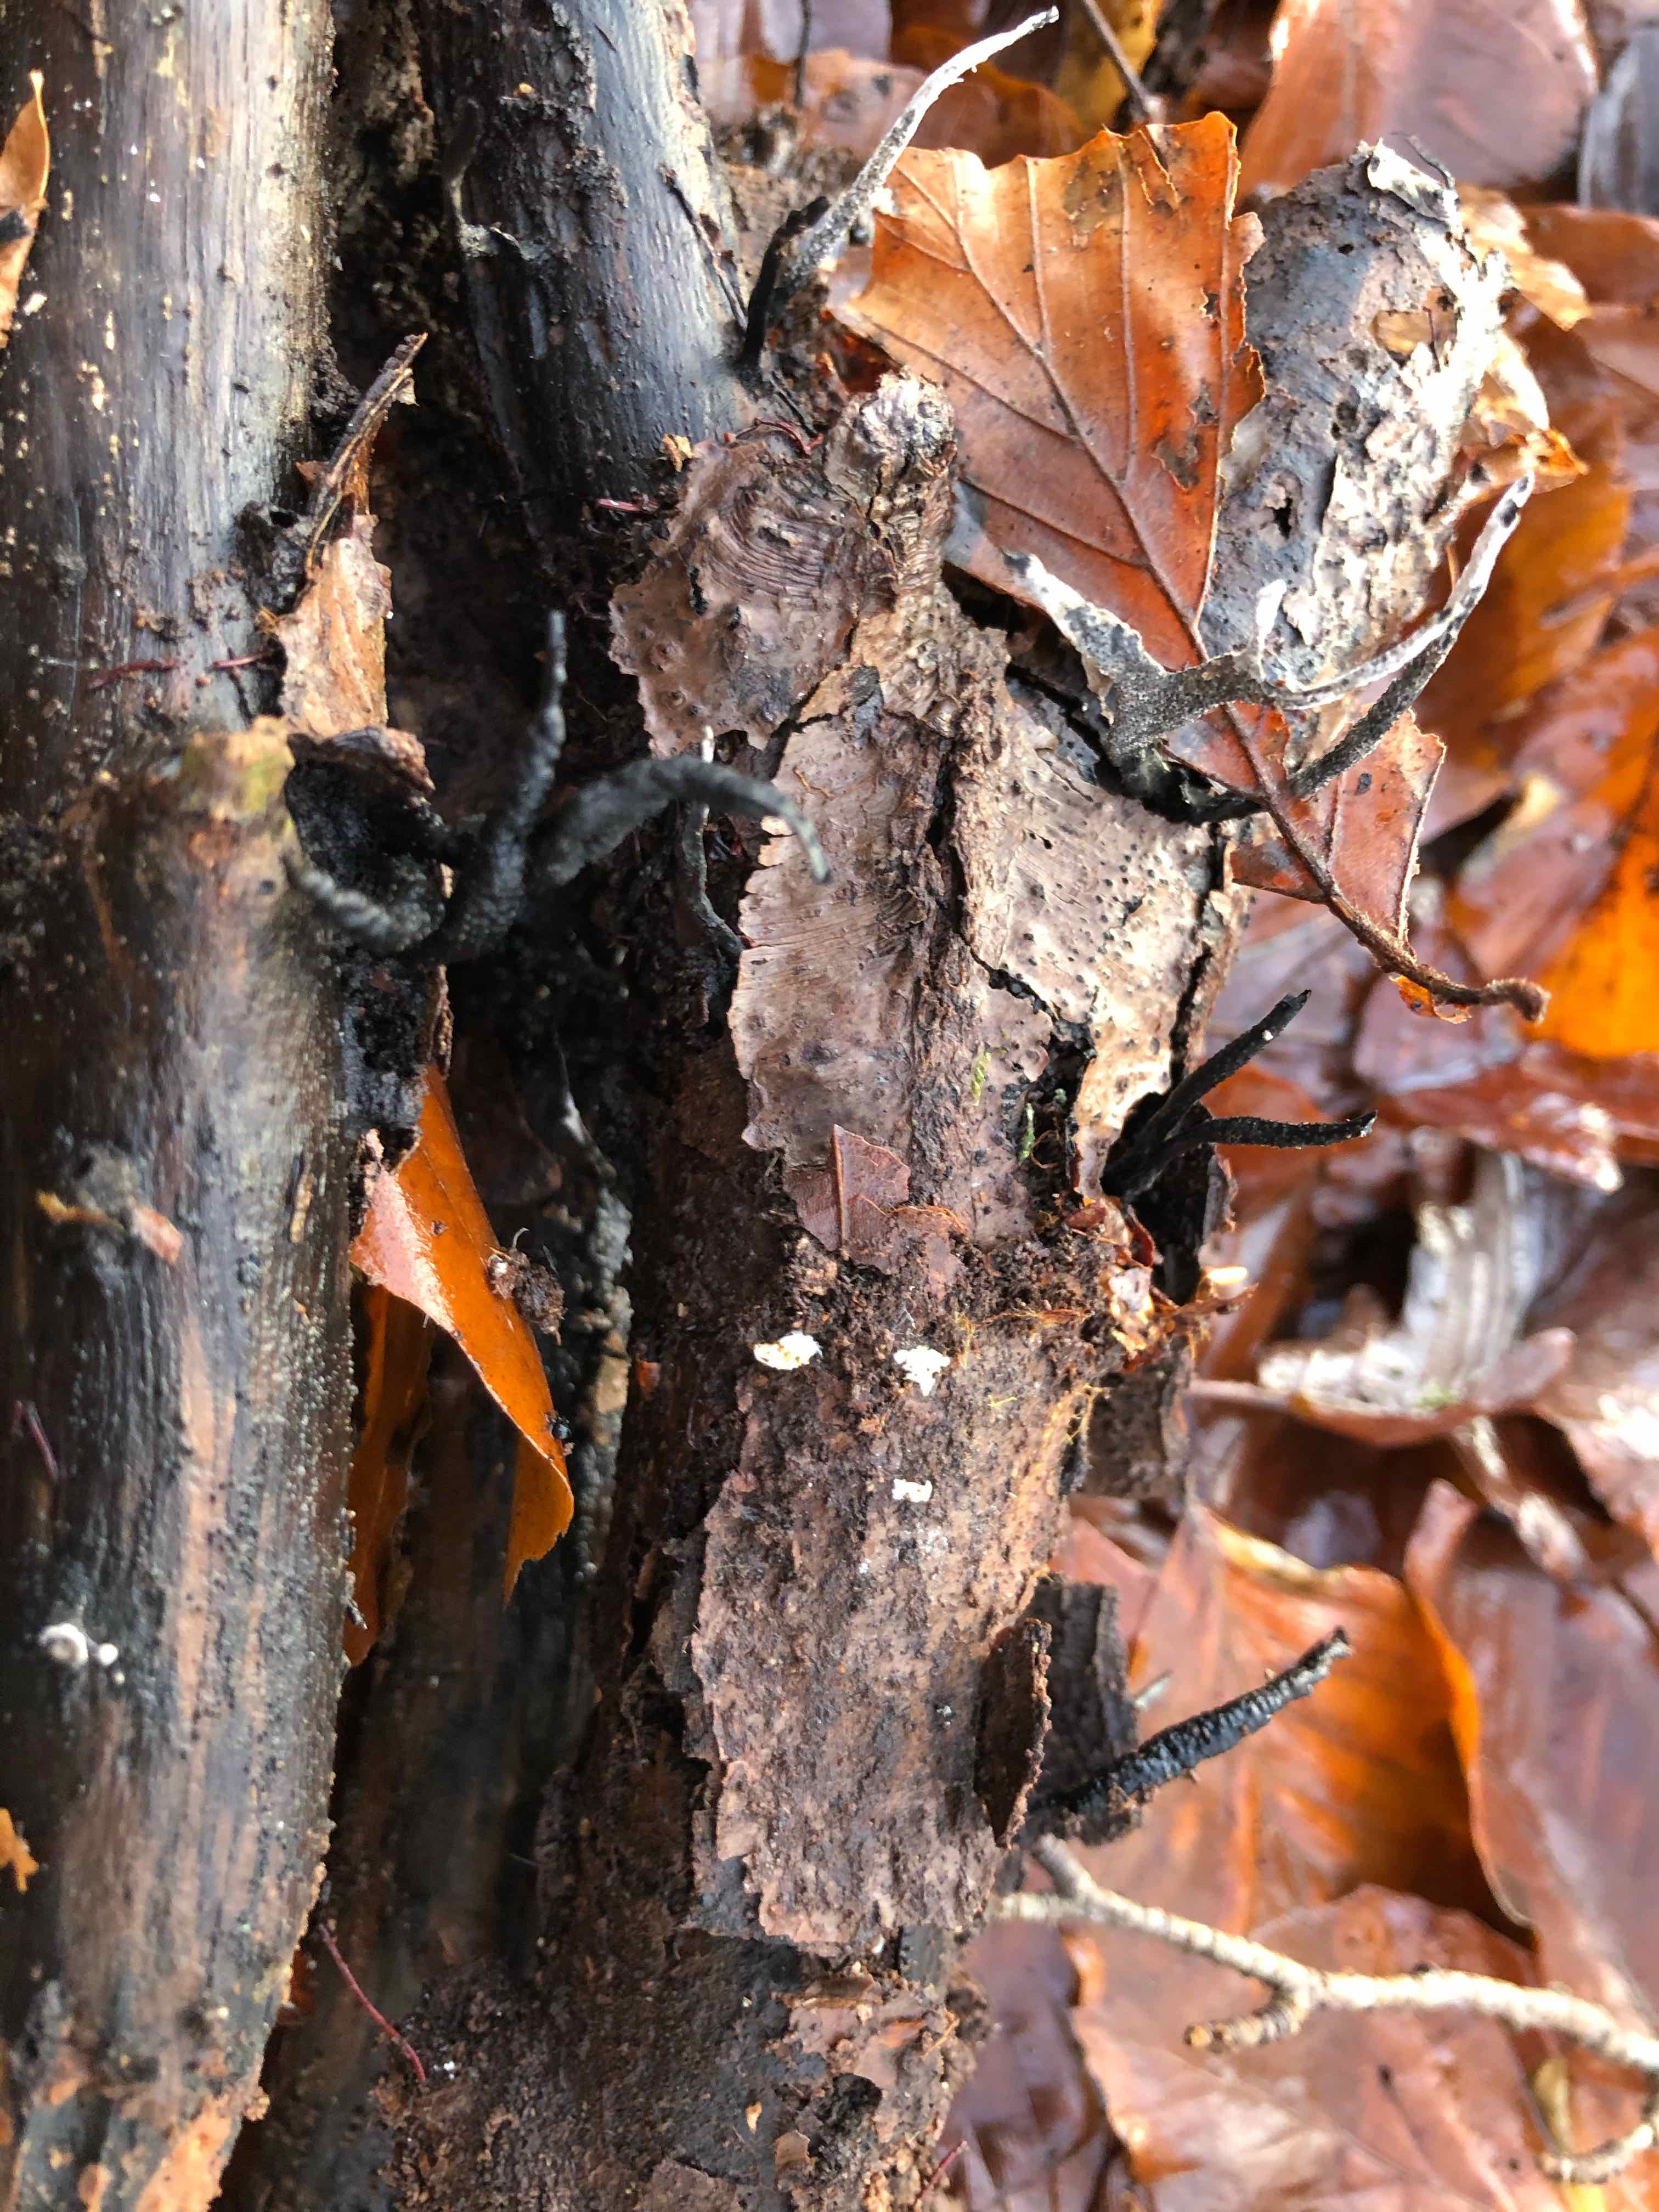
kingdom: Fungi
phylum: Ascomycota
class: Sordariomycetes
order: Xylariales
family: Xylariaceae
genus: Xylaria
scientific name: Xylaria hypoxylon
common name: grenet stødsvamp
